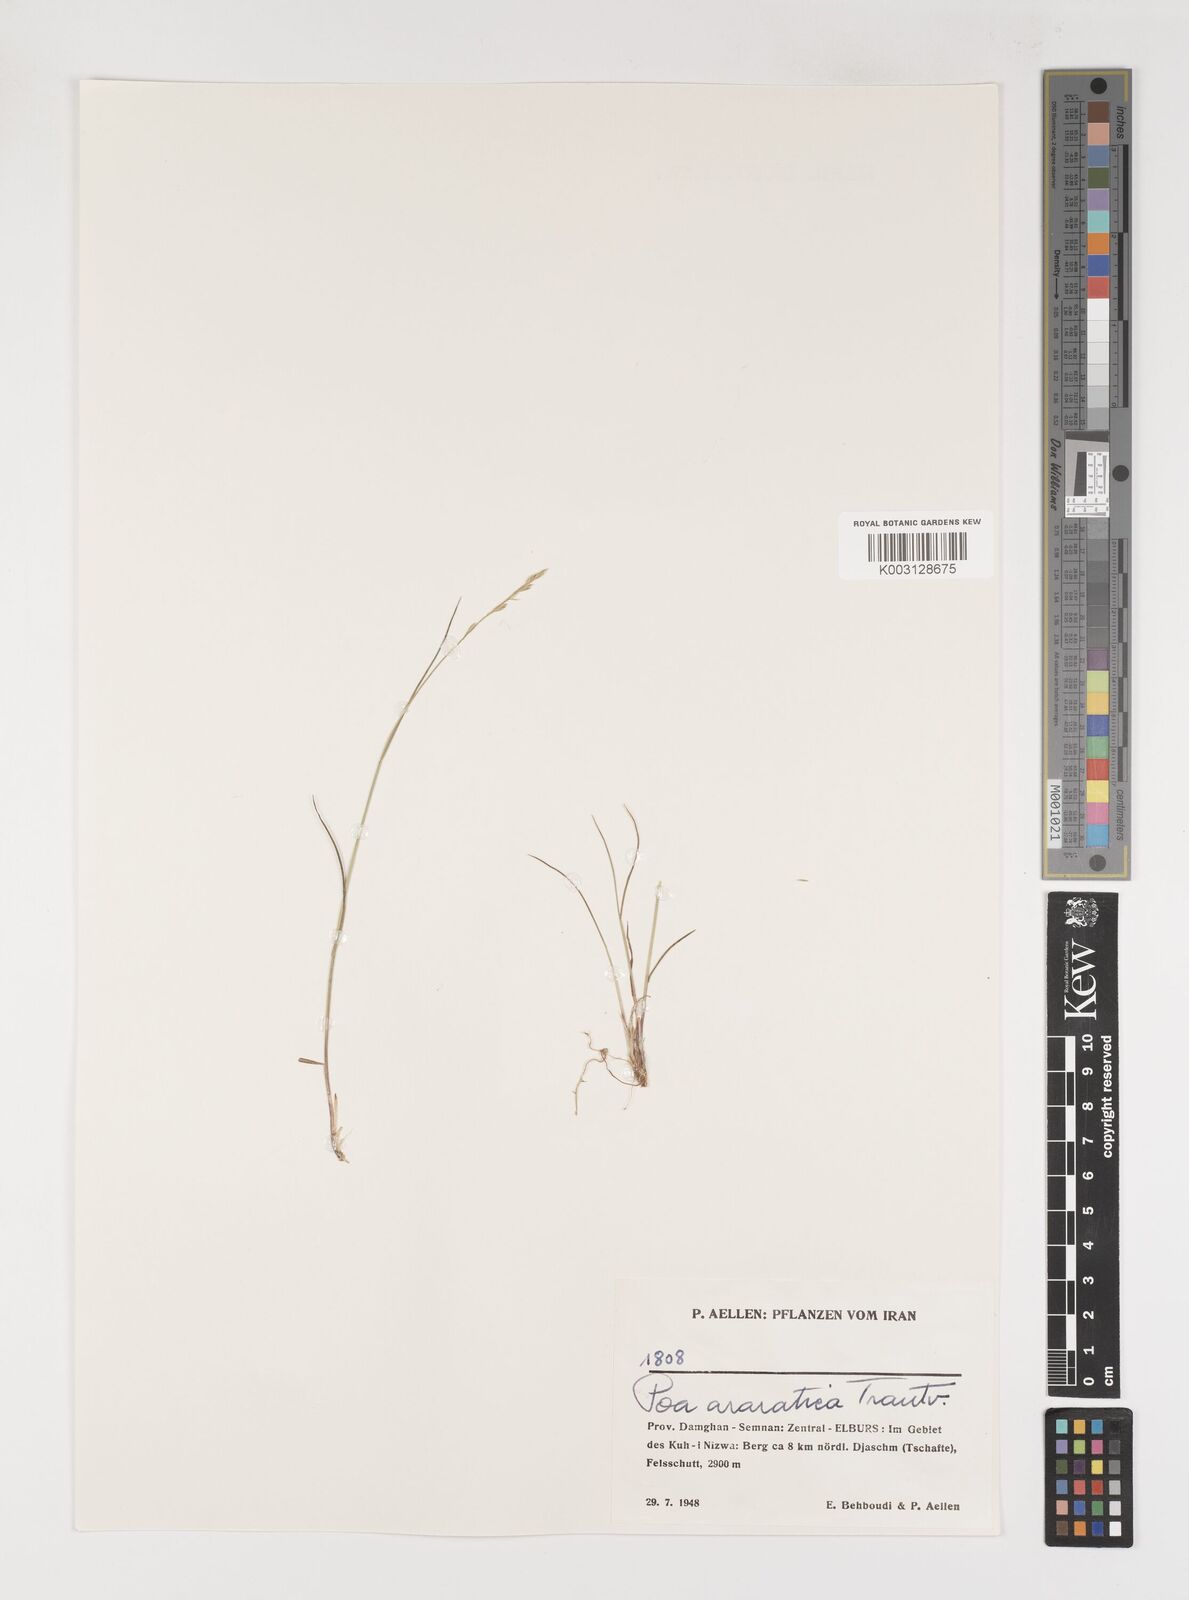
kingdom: Plantae
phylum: Tracheophyta
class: Liliopsida
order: Poales
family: Poaceae
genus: Poa
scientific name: Poa araratica
